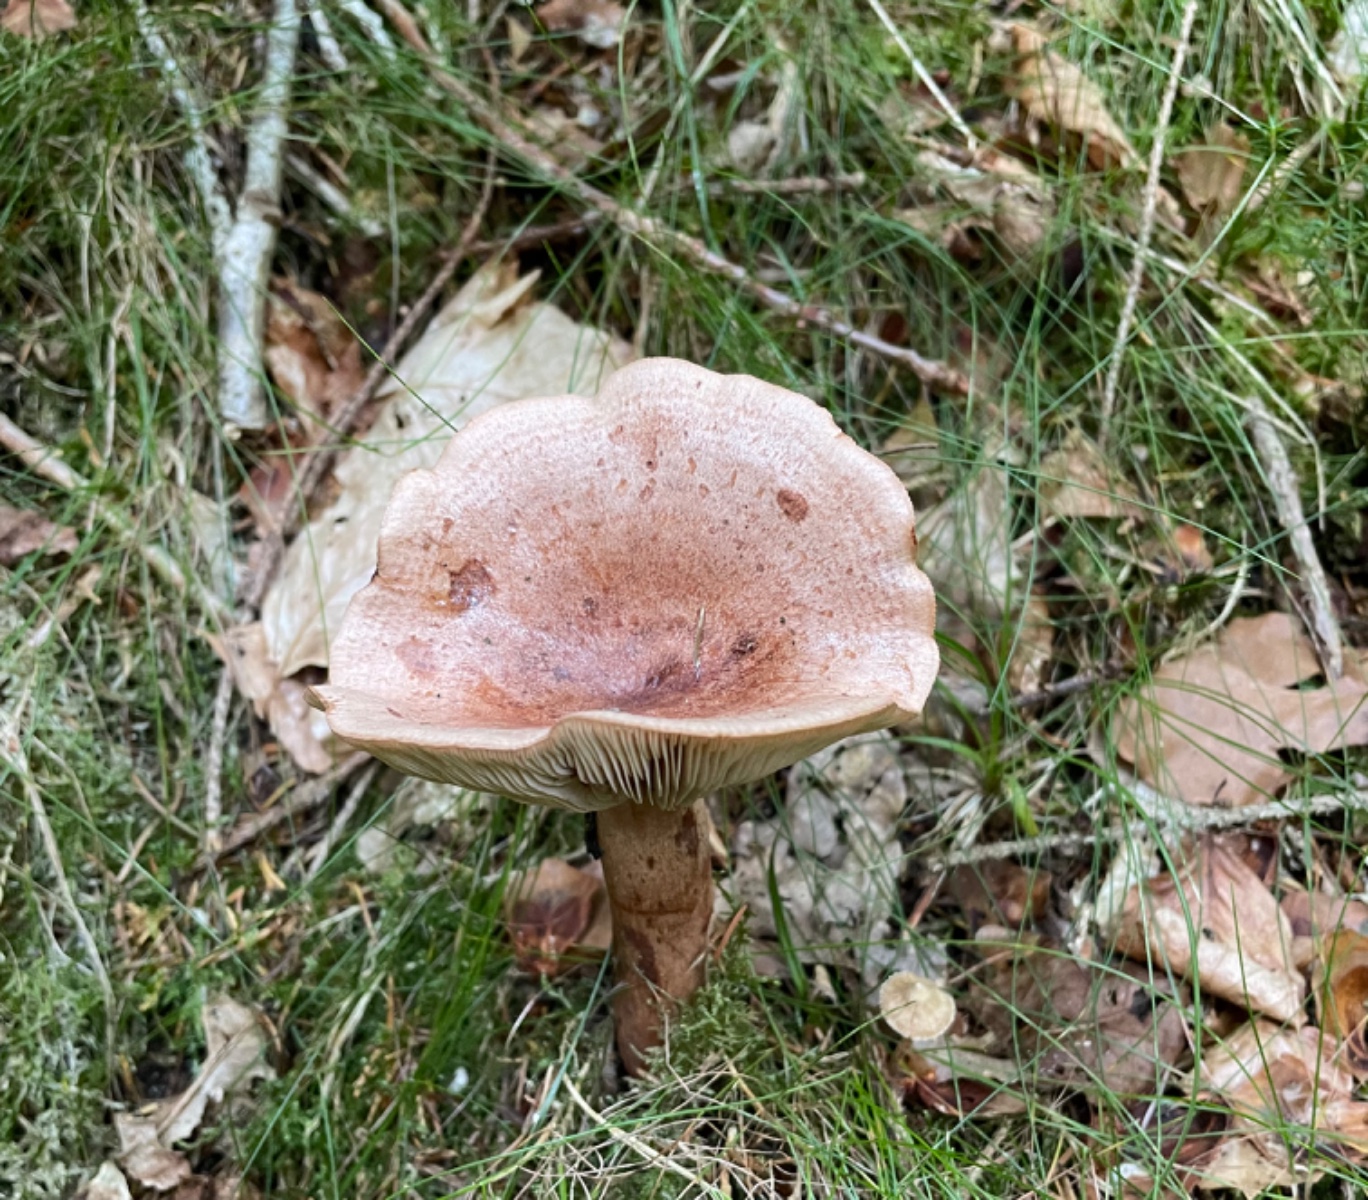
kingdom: Fungi
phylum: Basidiomycota
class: Agaricomycetes
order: Russulales
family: Russulaceae
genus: Lactarius
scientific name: Lactarius quietus
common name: ege-mælkehat
